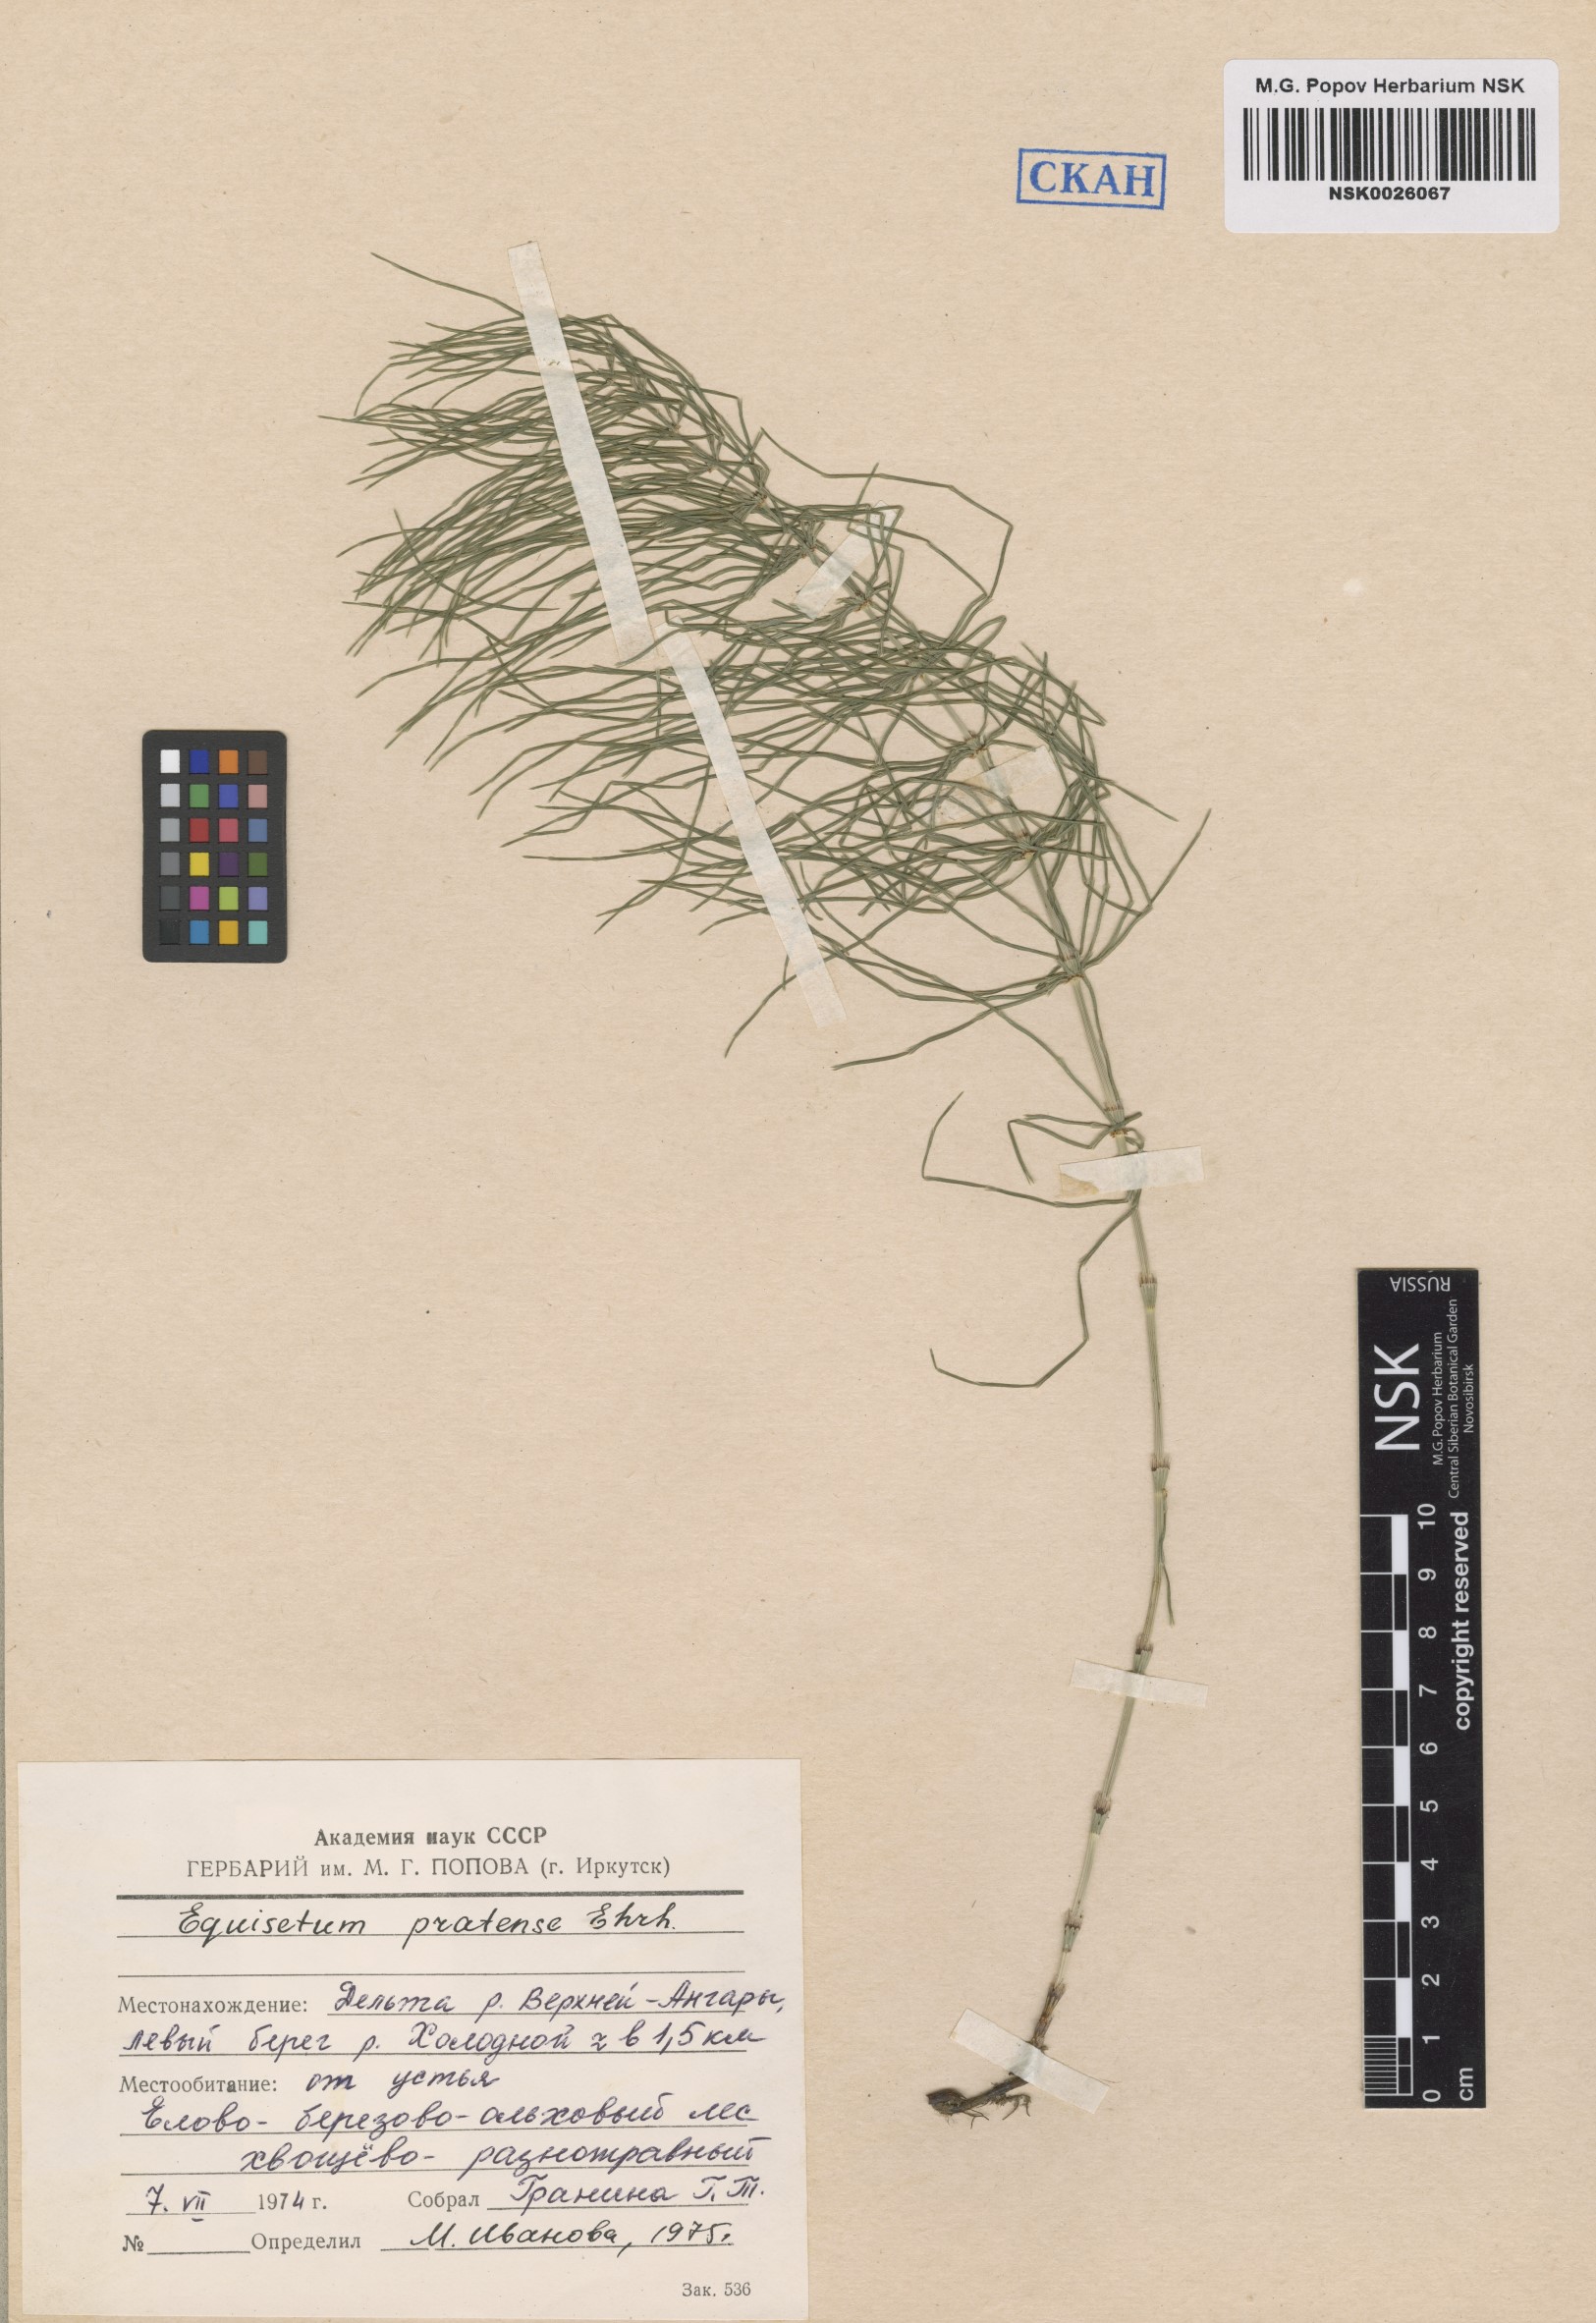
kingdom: Plantae
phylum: Tracheophyta
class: Polypodiopsida
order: Equisetales
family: Equisetaceae
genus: Equisetum
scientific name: Equisetum pratense
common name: Meadow horsetail
